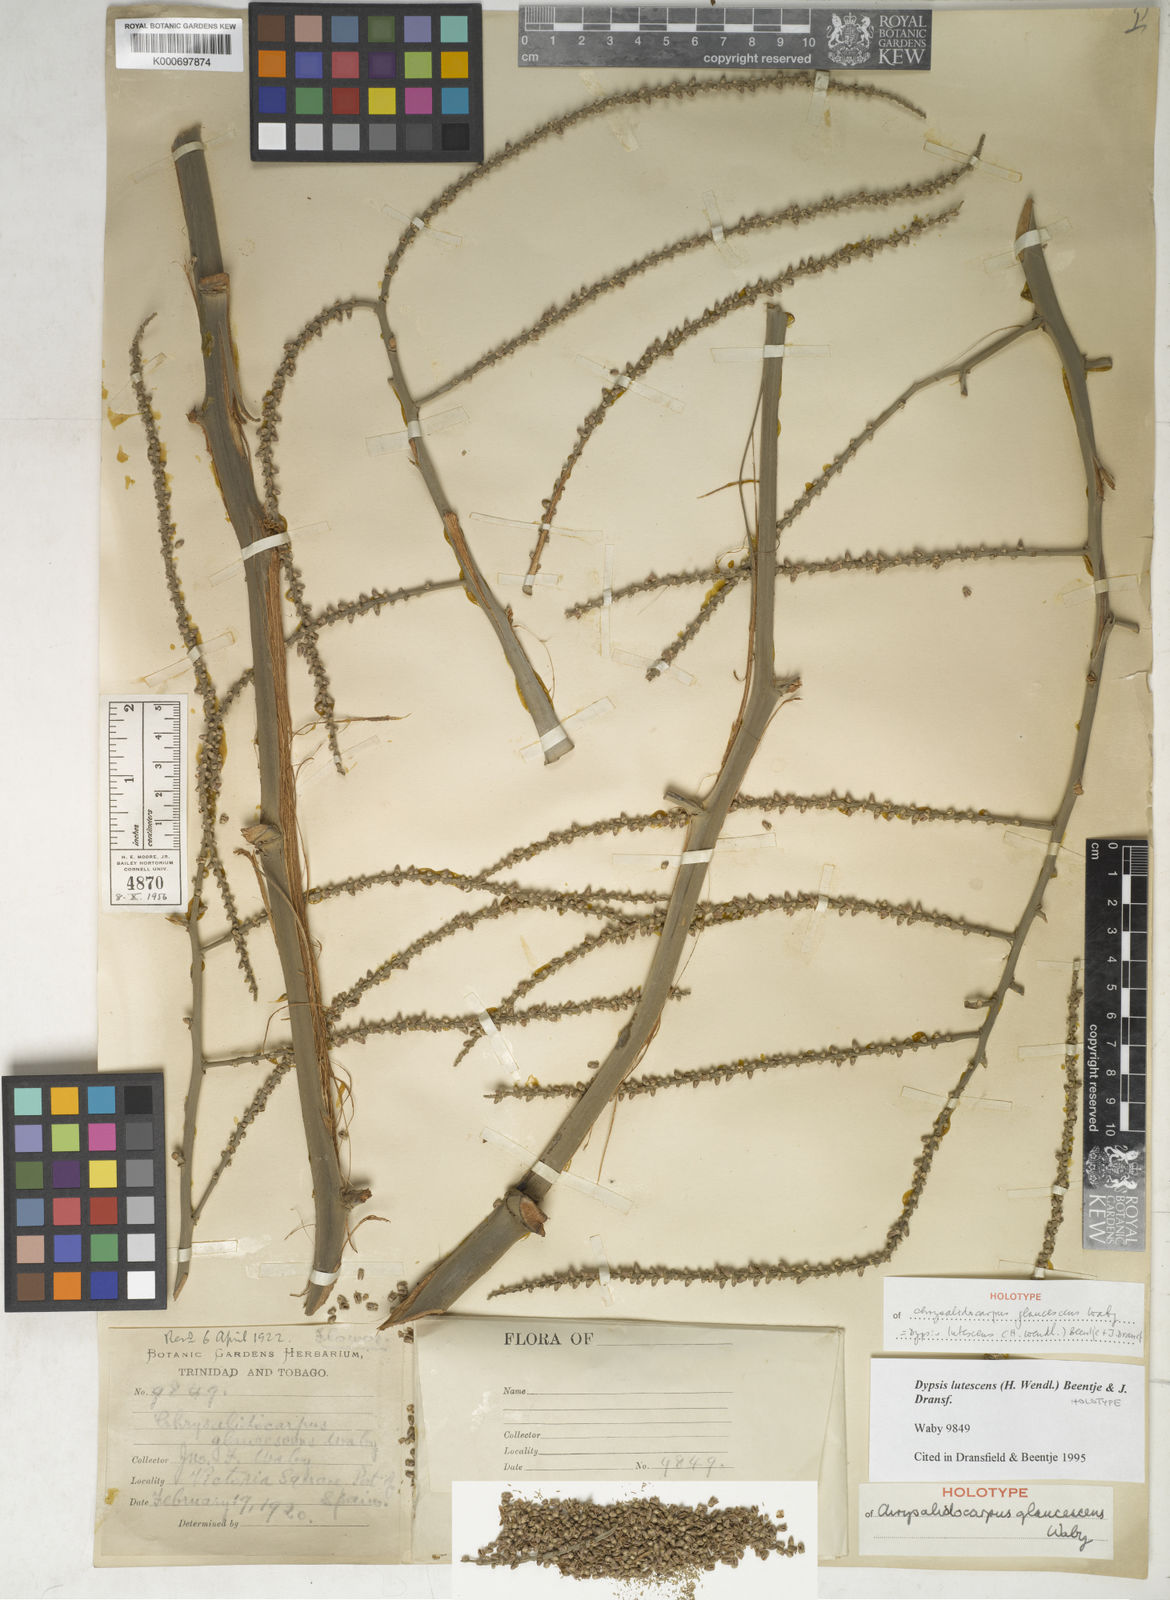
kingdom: Plantae
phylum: Tracheophyta
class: Liliopsida
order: Arecales
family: Arecaceae
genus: Dypsis
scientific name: Dypsis lutescens
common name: Yellow butterfly palm
